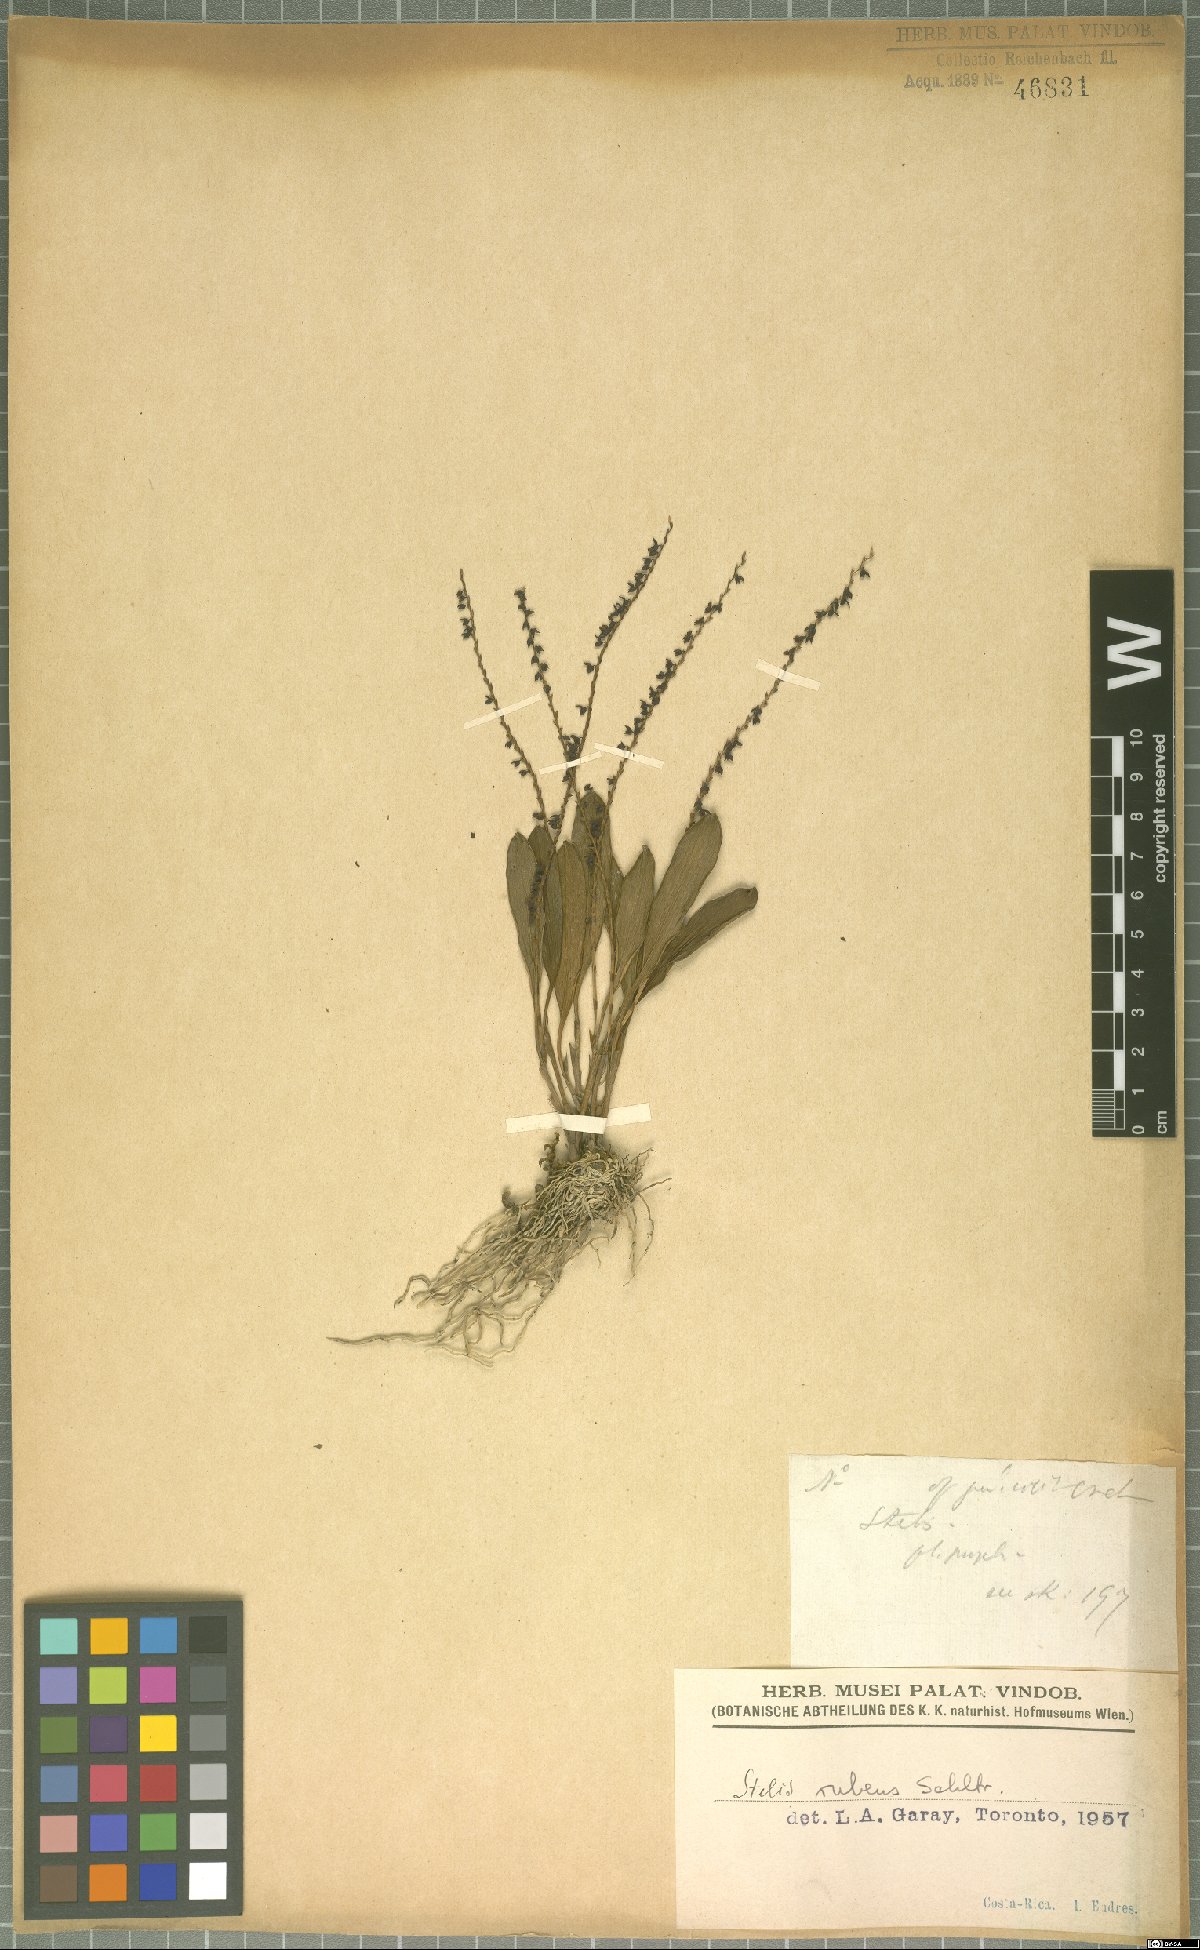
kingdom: Plantae
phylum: Tracheophyta
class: Liliopsida
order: Asparagales
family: Orchidaceae
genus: Stelis
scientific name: Stelis rubens
